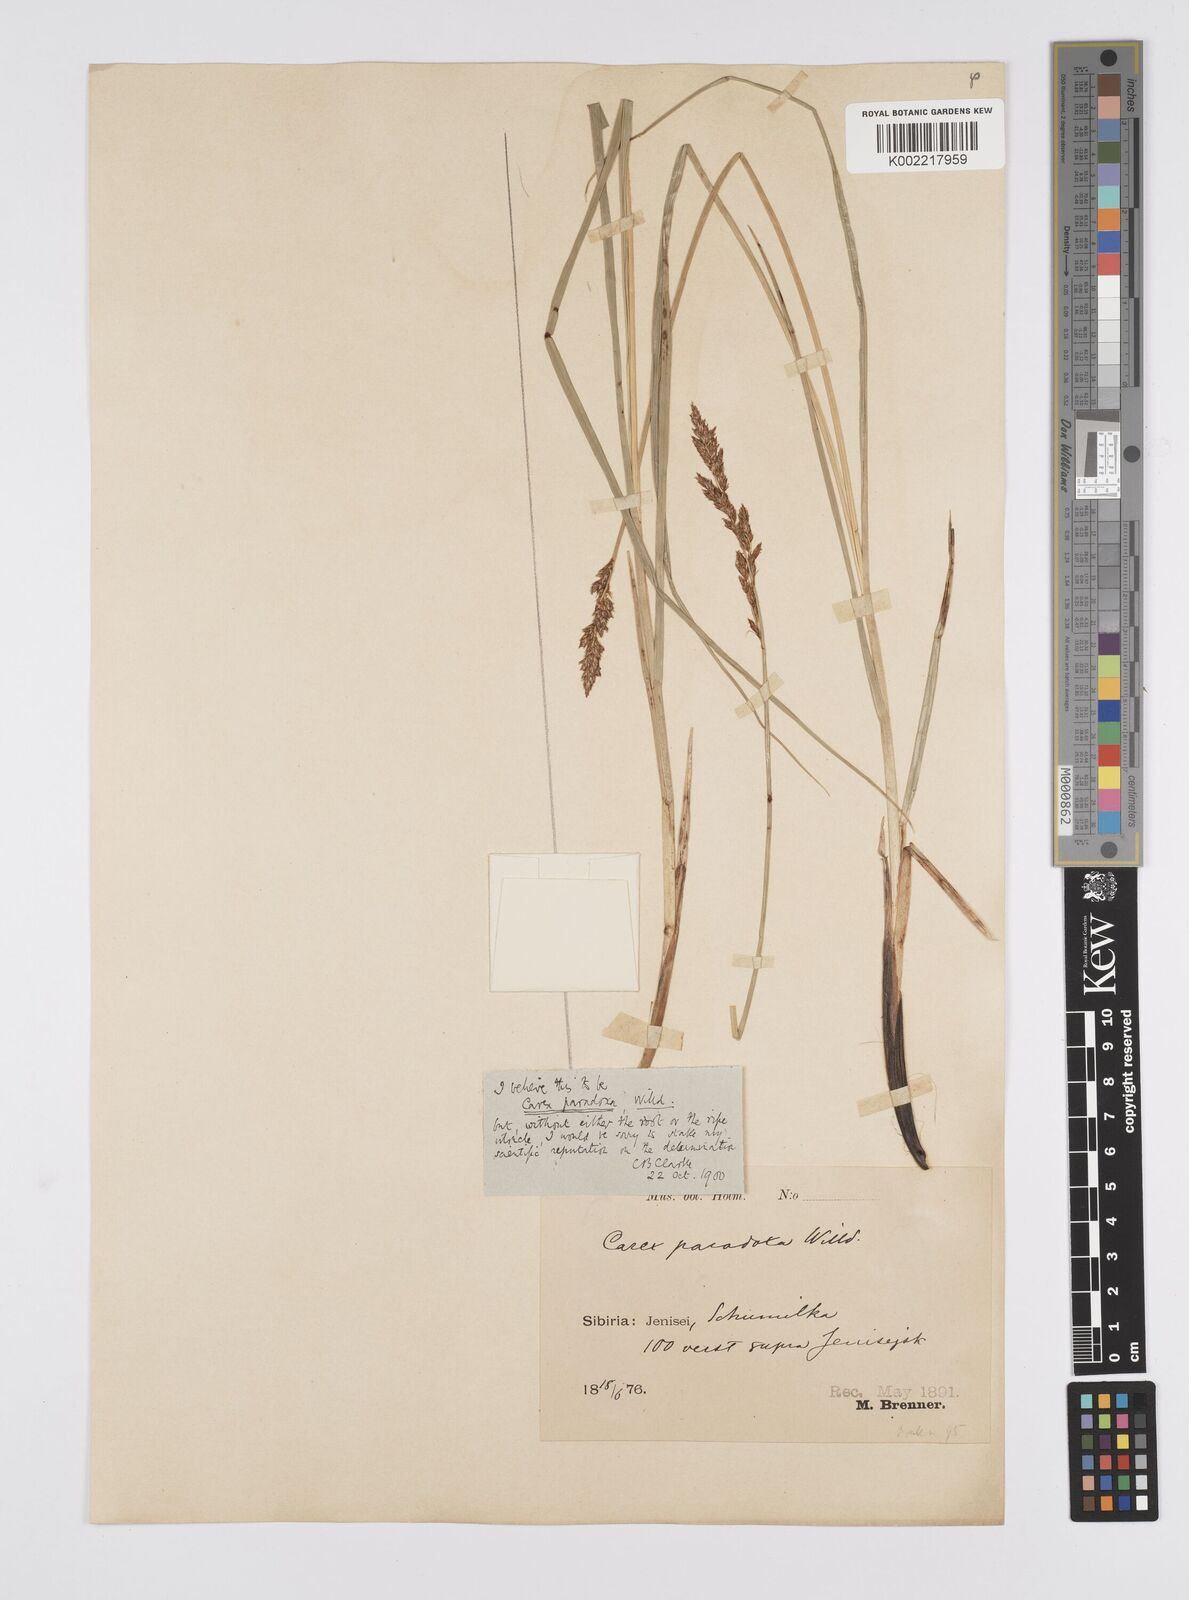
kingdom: Plantae
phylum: Tracheophyta
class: Liliopsida
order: Poales
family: Cyperaceae
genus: Carex
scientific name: Carex appropinquata
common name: Fibrous tussock-sedge
